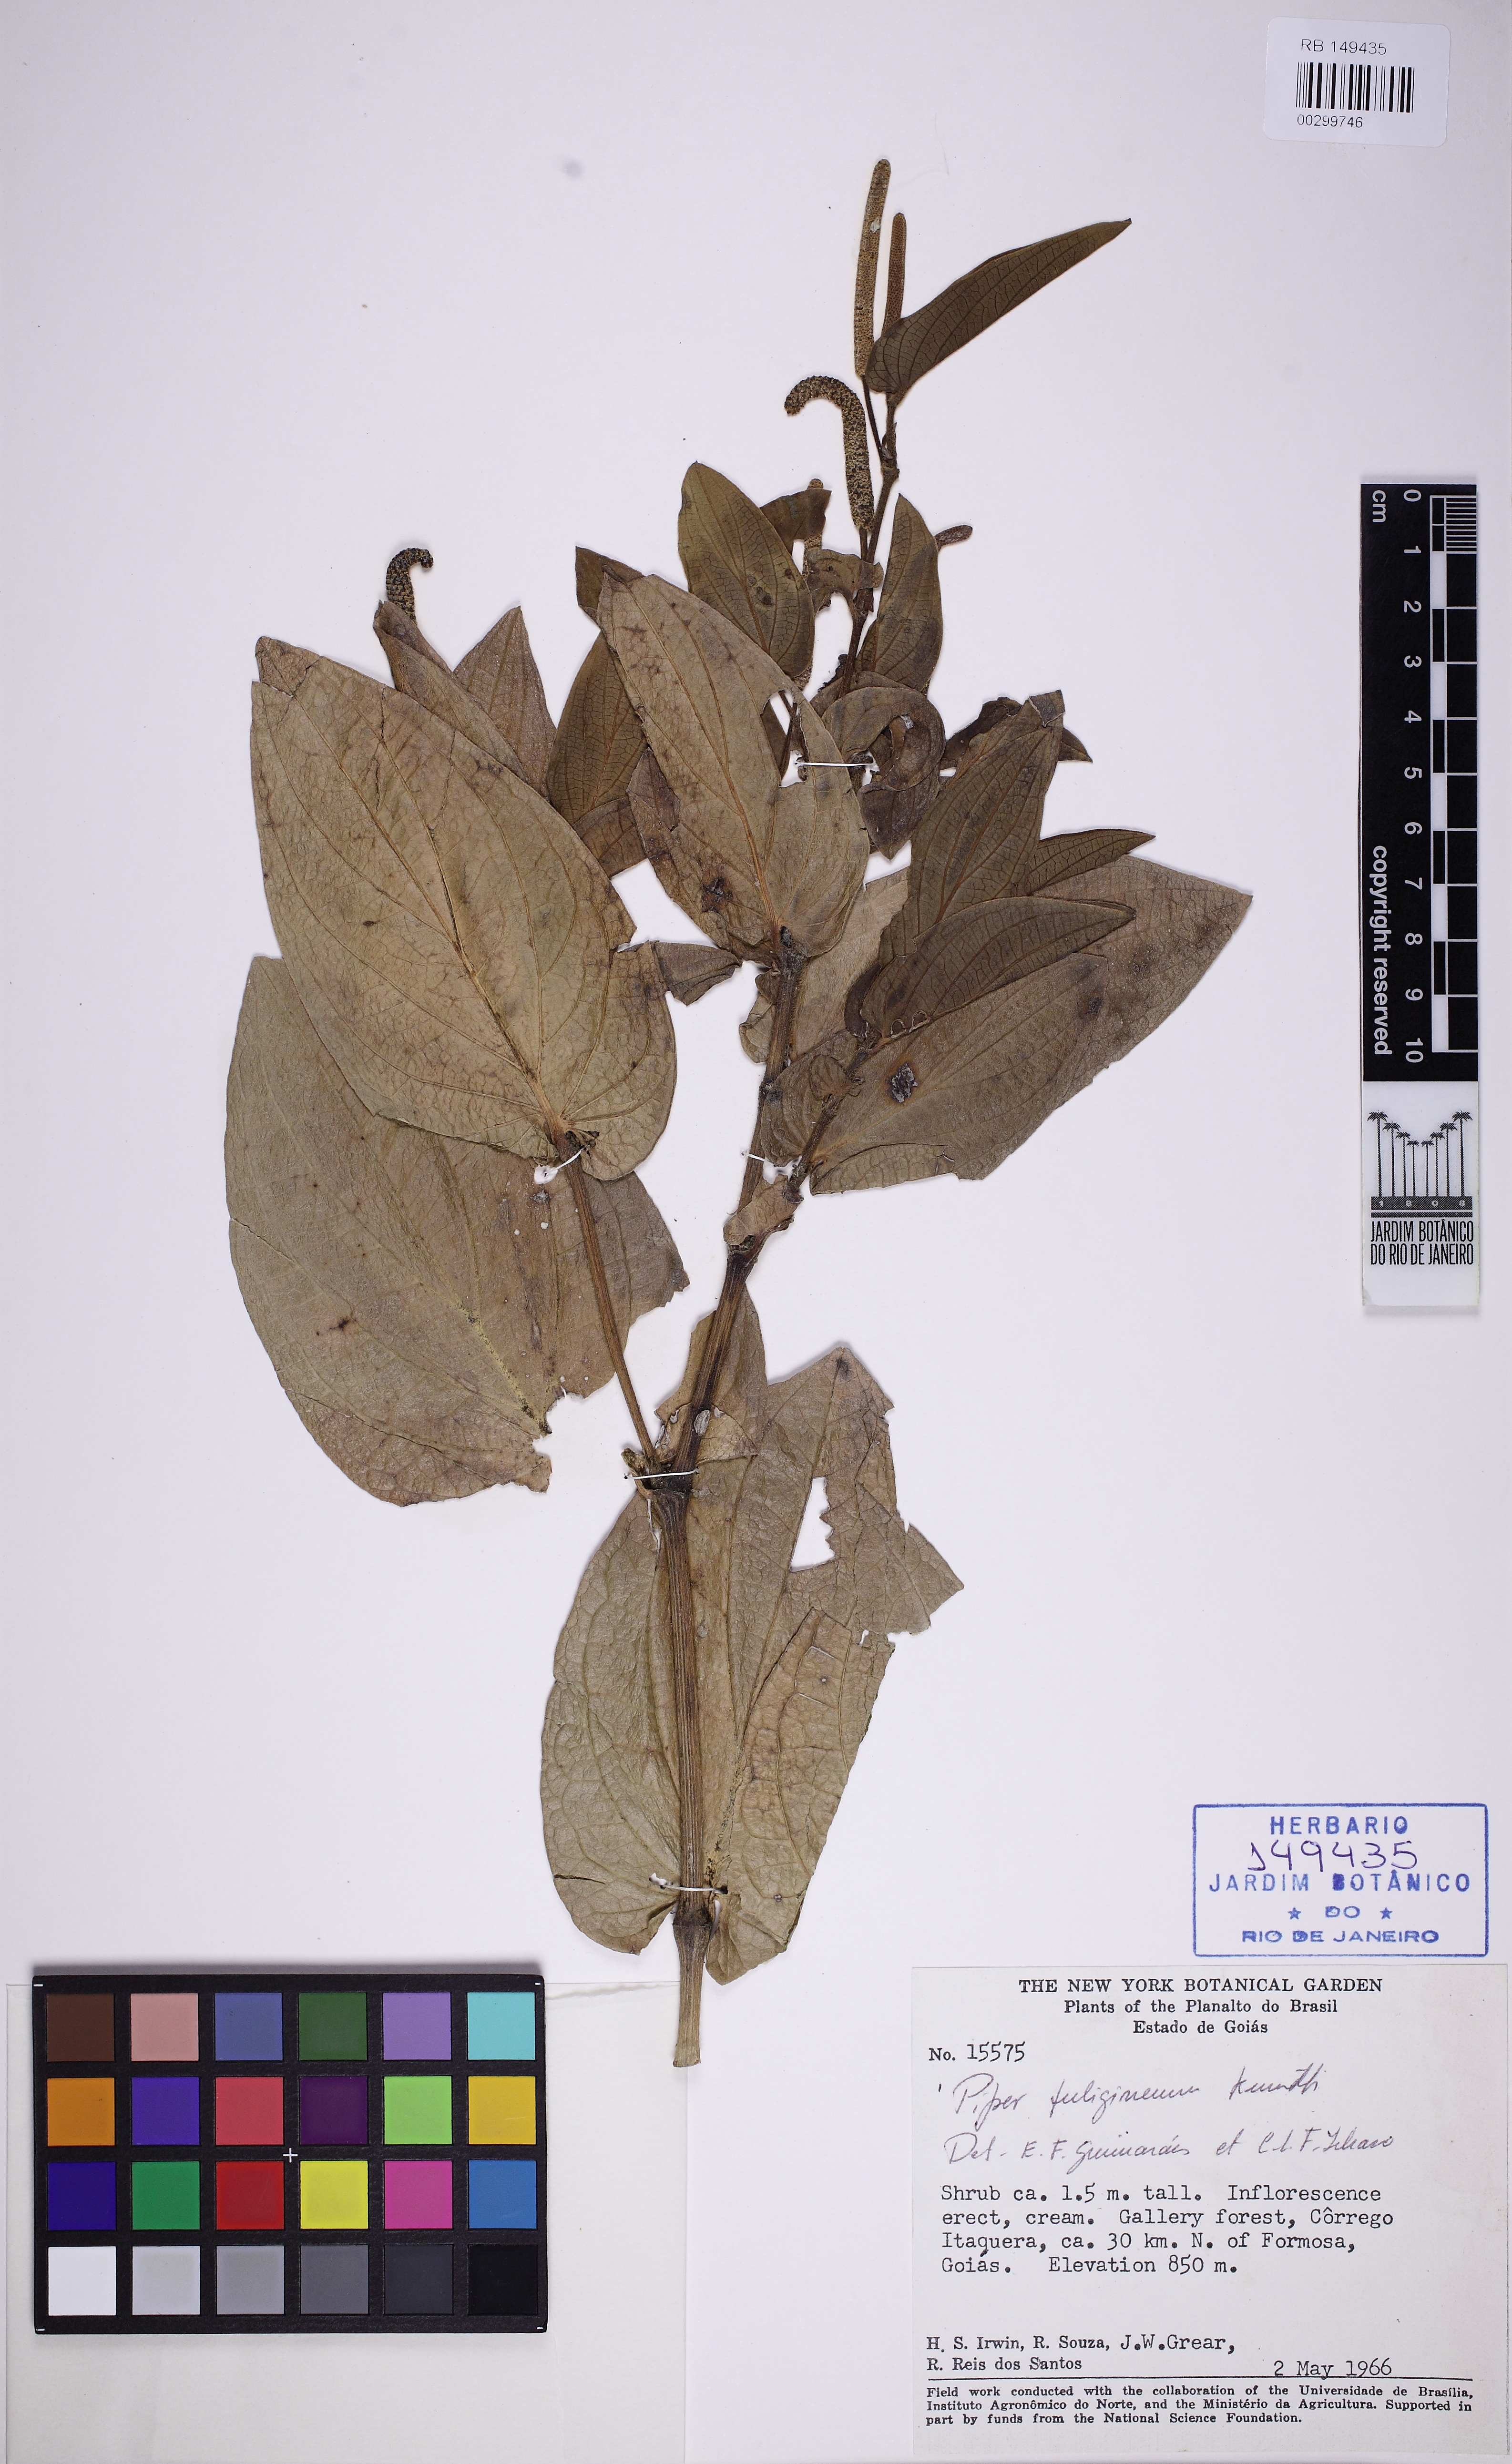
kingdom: Plantae
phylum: Tracheophyta
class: Magnoliopsida
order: Piperales
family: Piperaceae
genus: Piper
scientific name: Piper fuligineum
